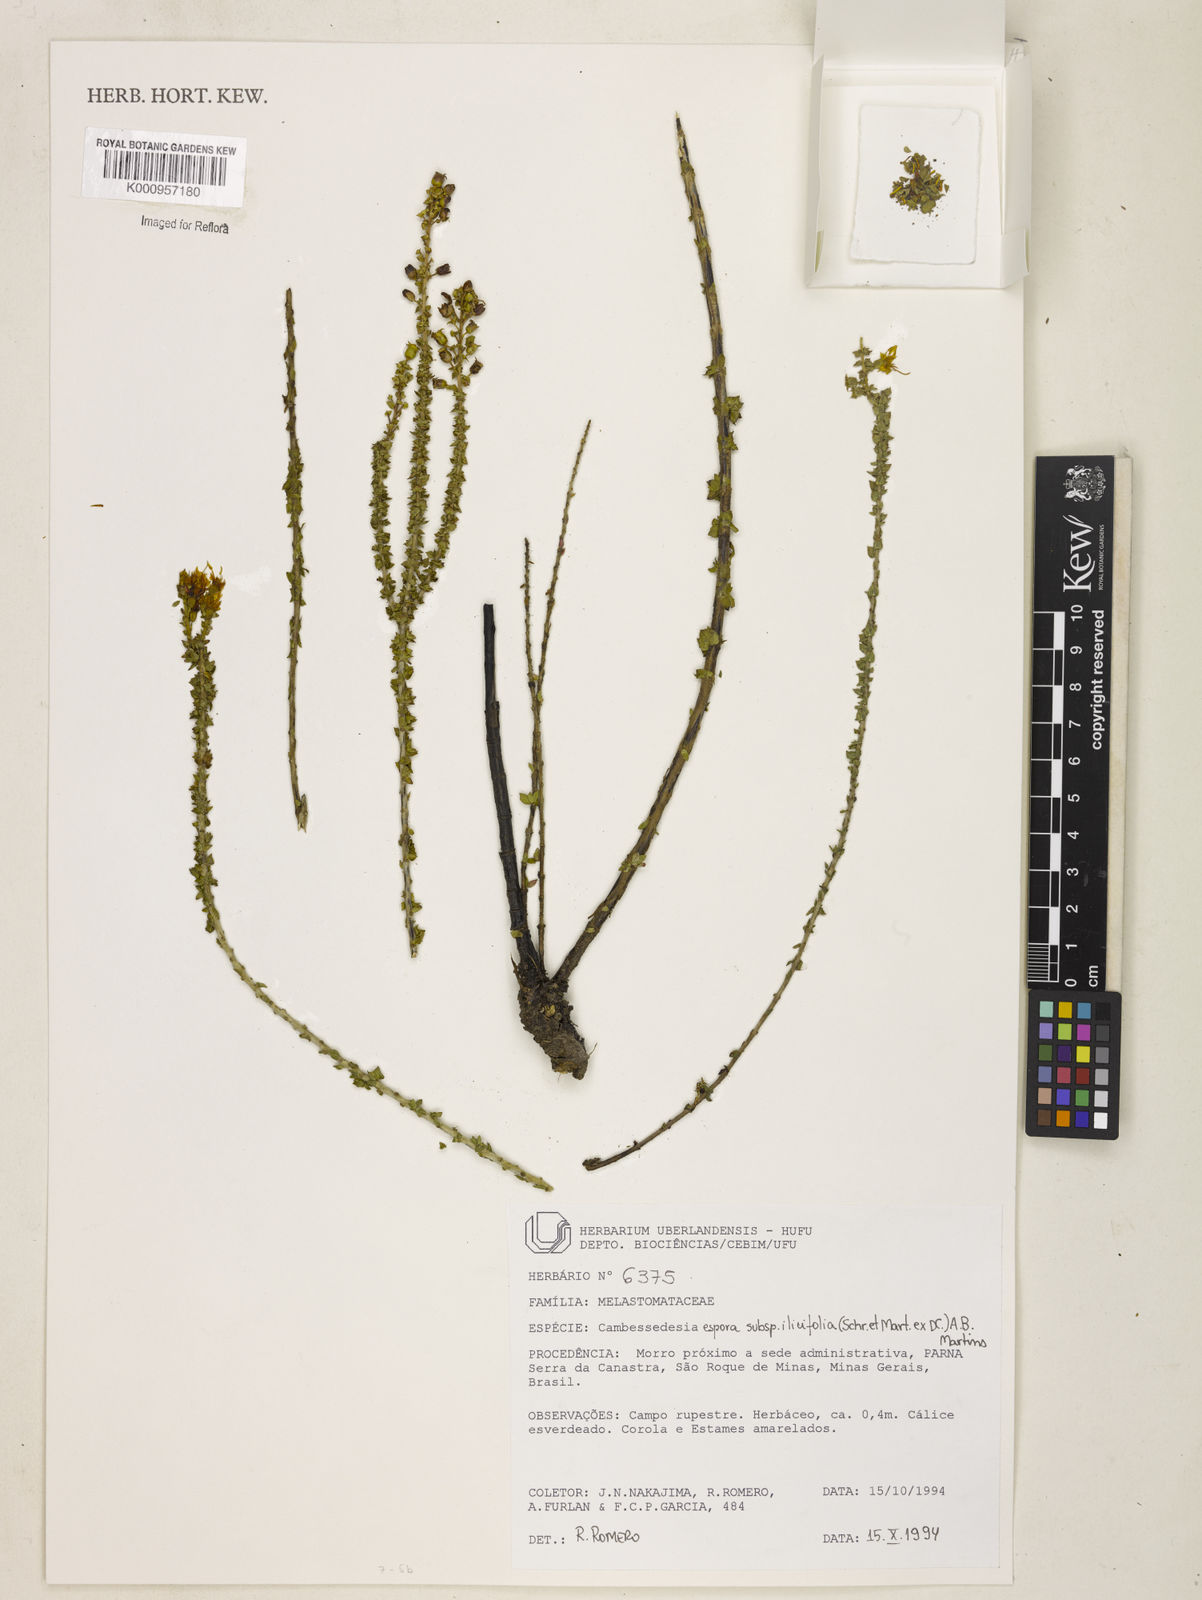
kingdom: Plantae
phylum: Tracheophyta
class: Magnoliopsida
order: Myrtales
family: Melastomataceae
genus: Cambessedesia
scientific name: Cambessedesia espora
